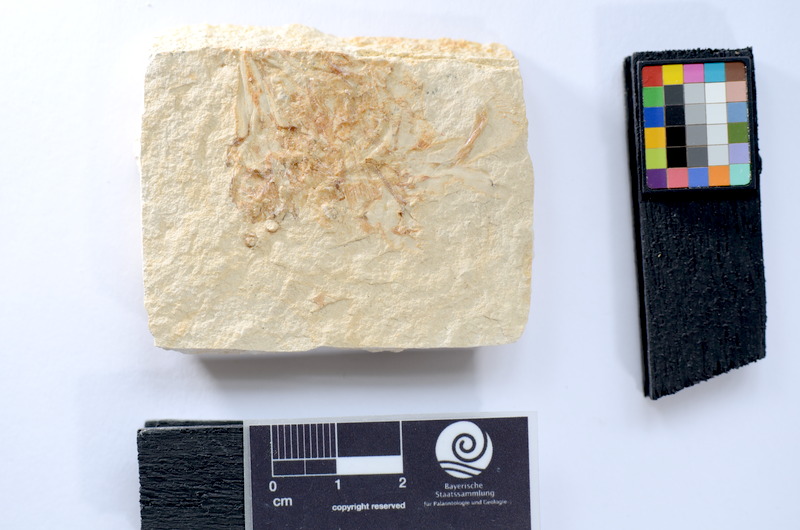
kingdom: Animalia
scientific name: Animalia
